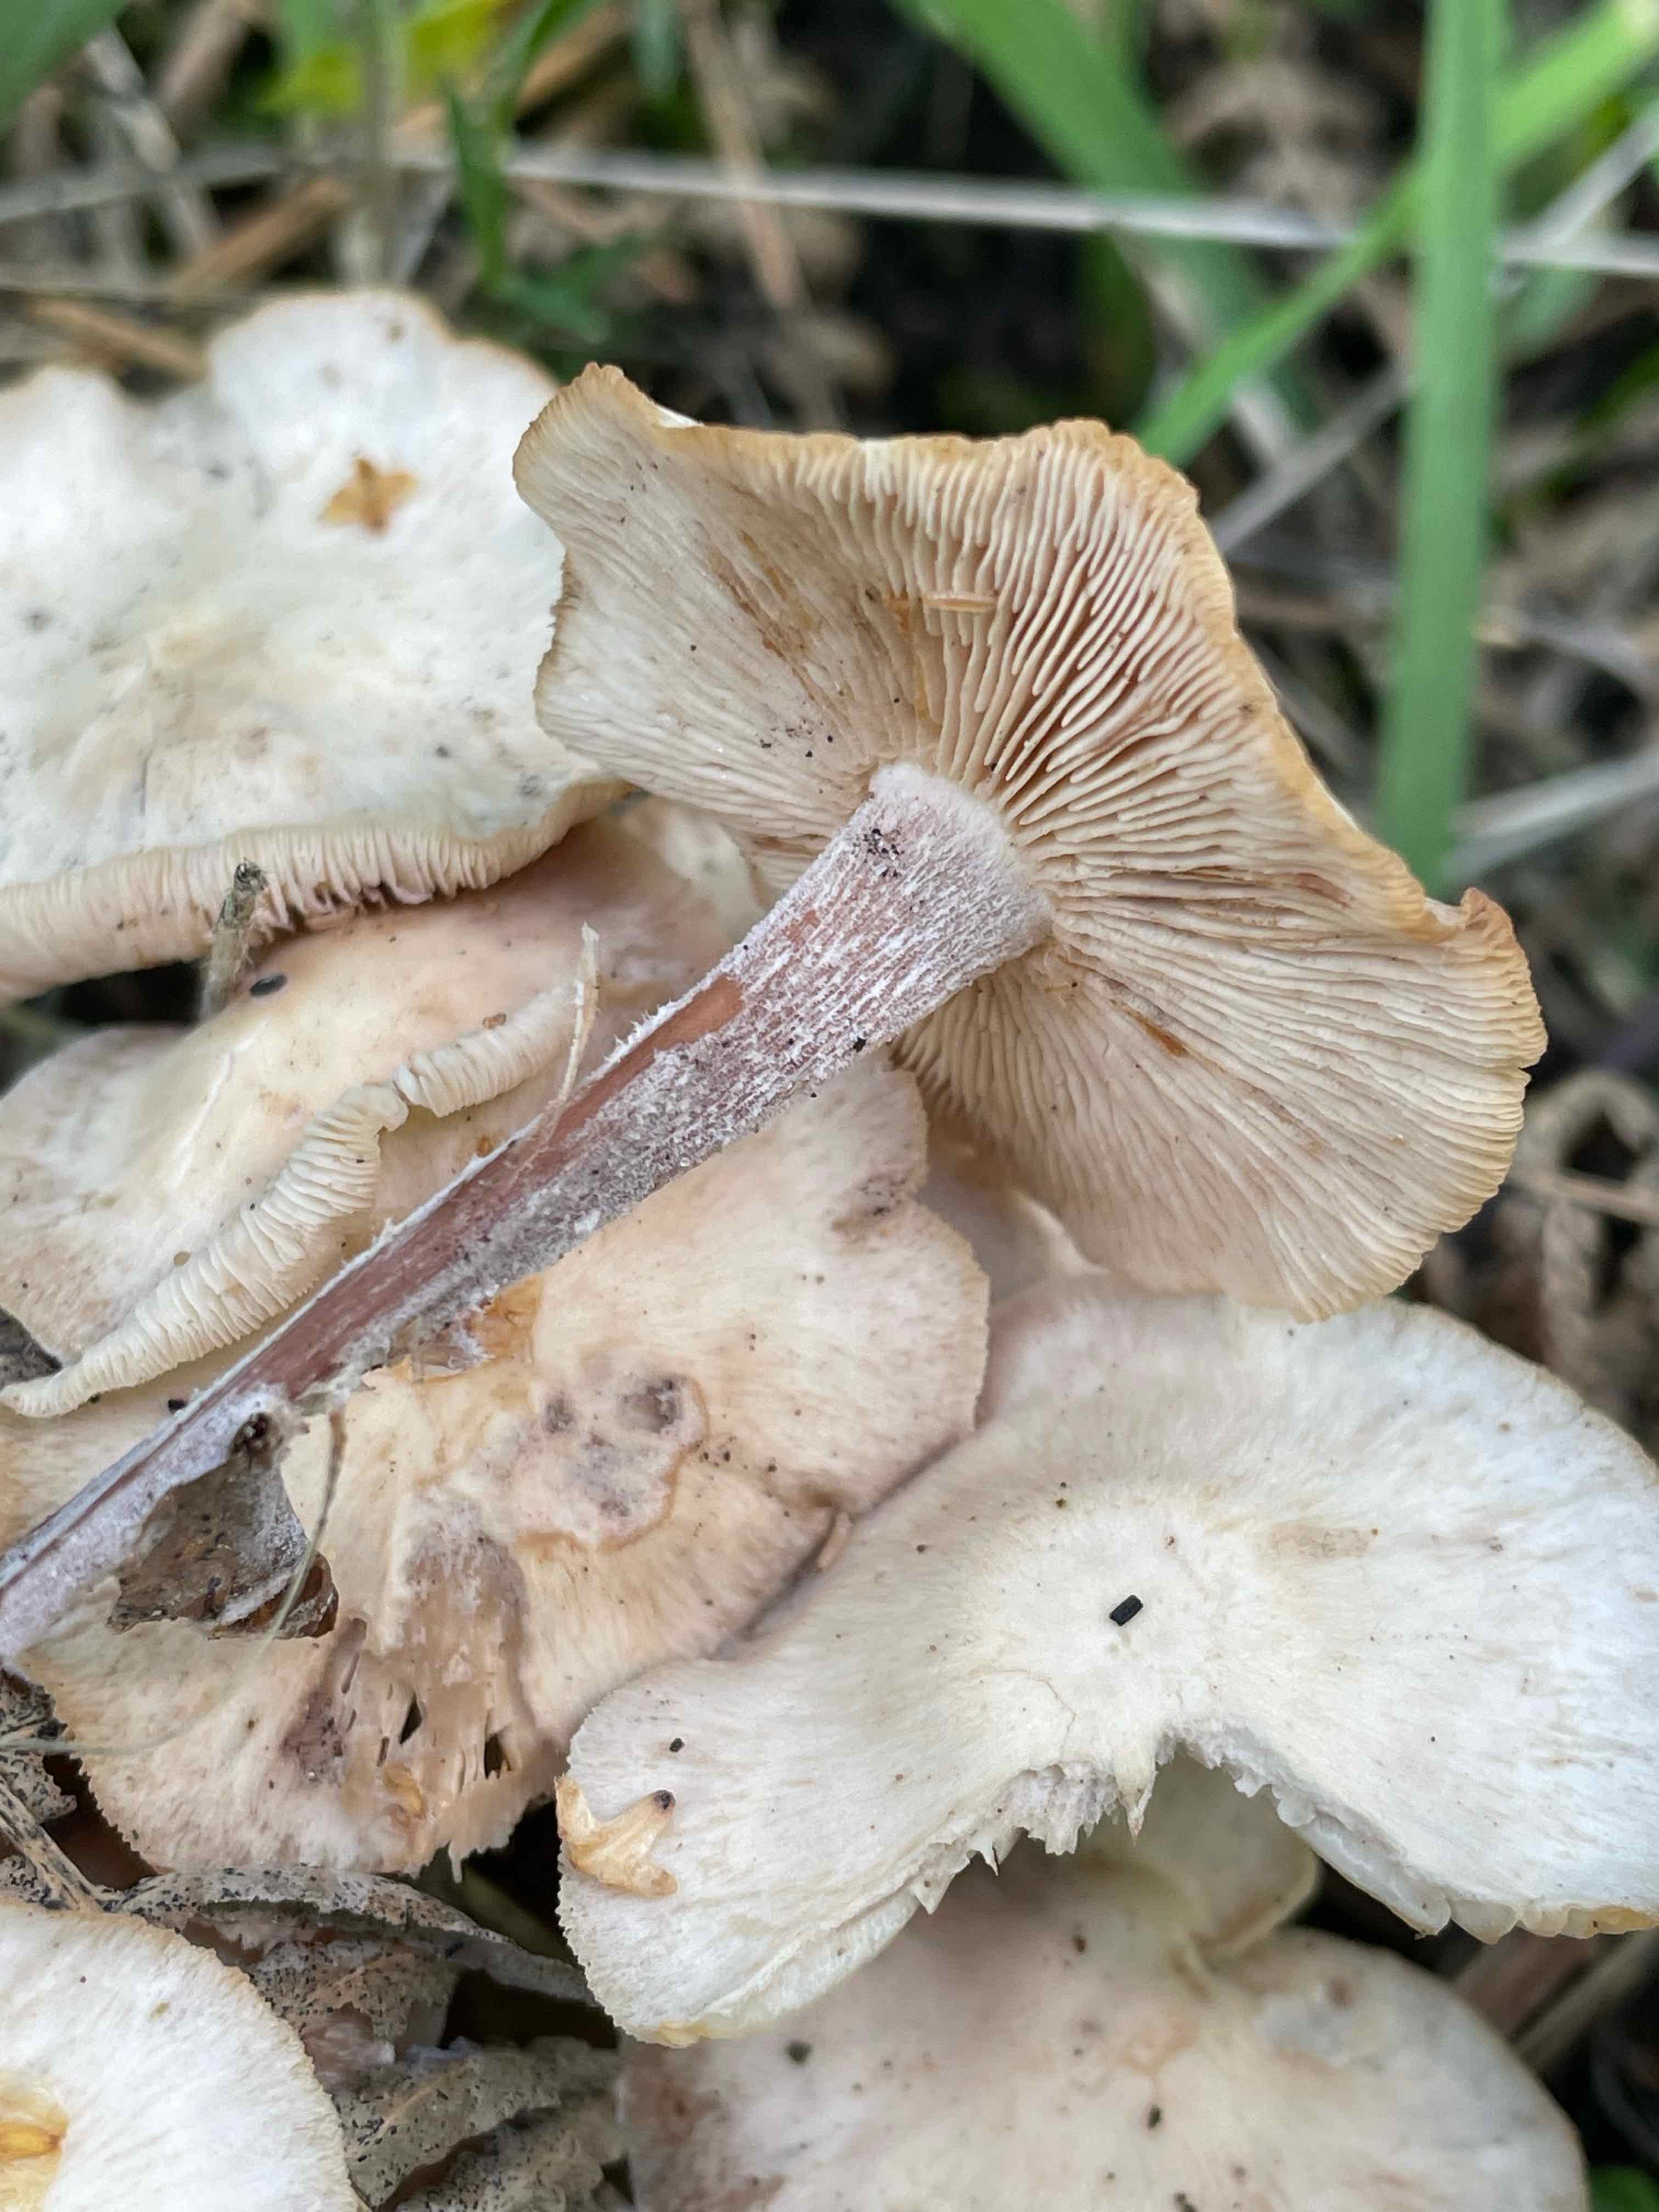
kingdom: Fungi
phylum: Basidiomycota
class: Agaricomycetes
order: Agaricales
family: Omphalotaceae
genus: Collybiopsis
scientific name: Collybiopsis confluens
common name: knippe-fladhat
